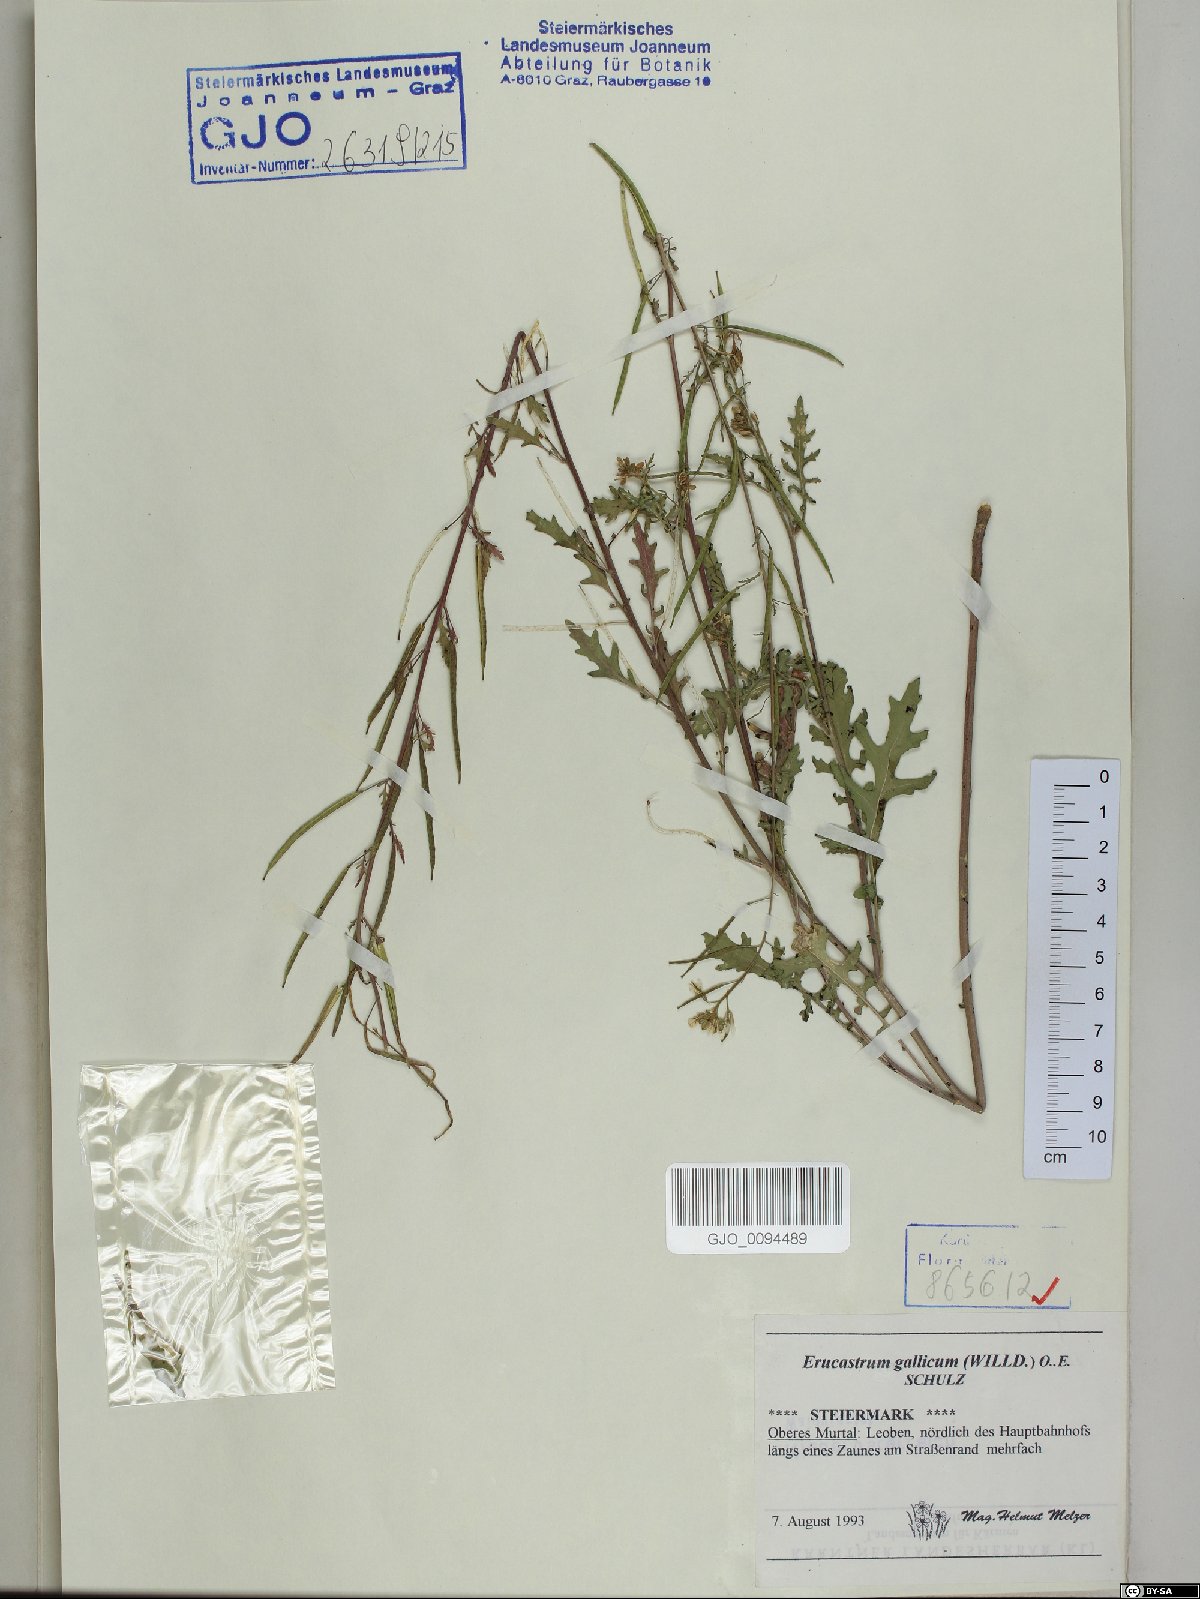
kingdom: Plantae
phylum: Tracheophyta
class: Magnoliopsida
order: Brassicales
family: Brassicaceae
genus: Erucastrum
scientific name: Erucastrum gallicum
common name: Hairy rocket
